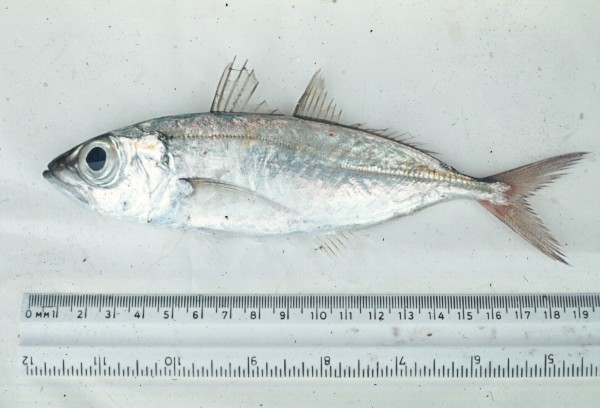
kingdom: Animalia
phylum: Chordata
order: Perciformes
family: Carangidae
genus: Selar
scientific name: Selar boops
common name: Oxeye scad
